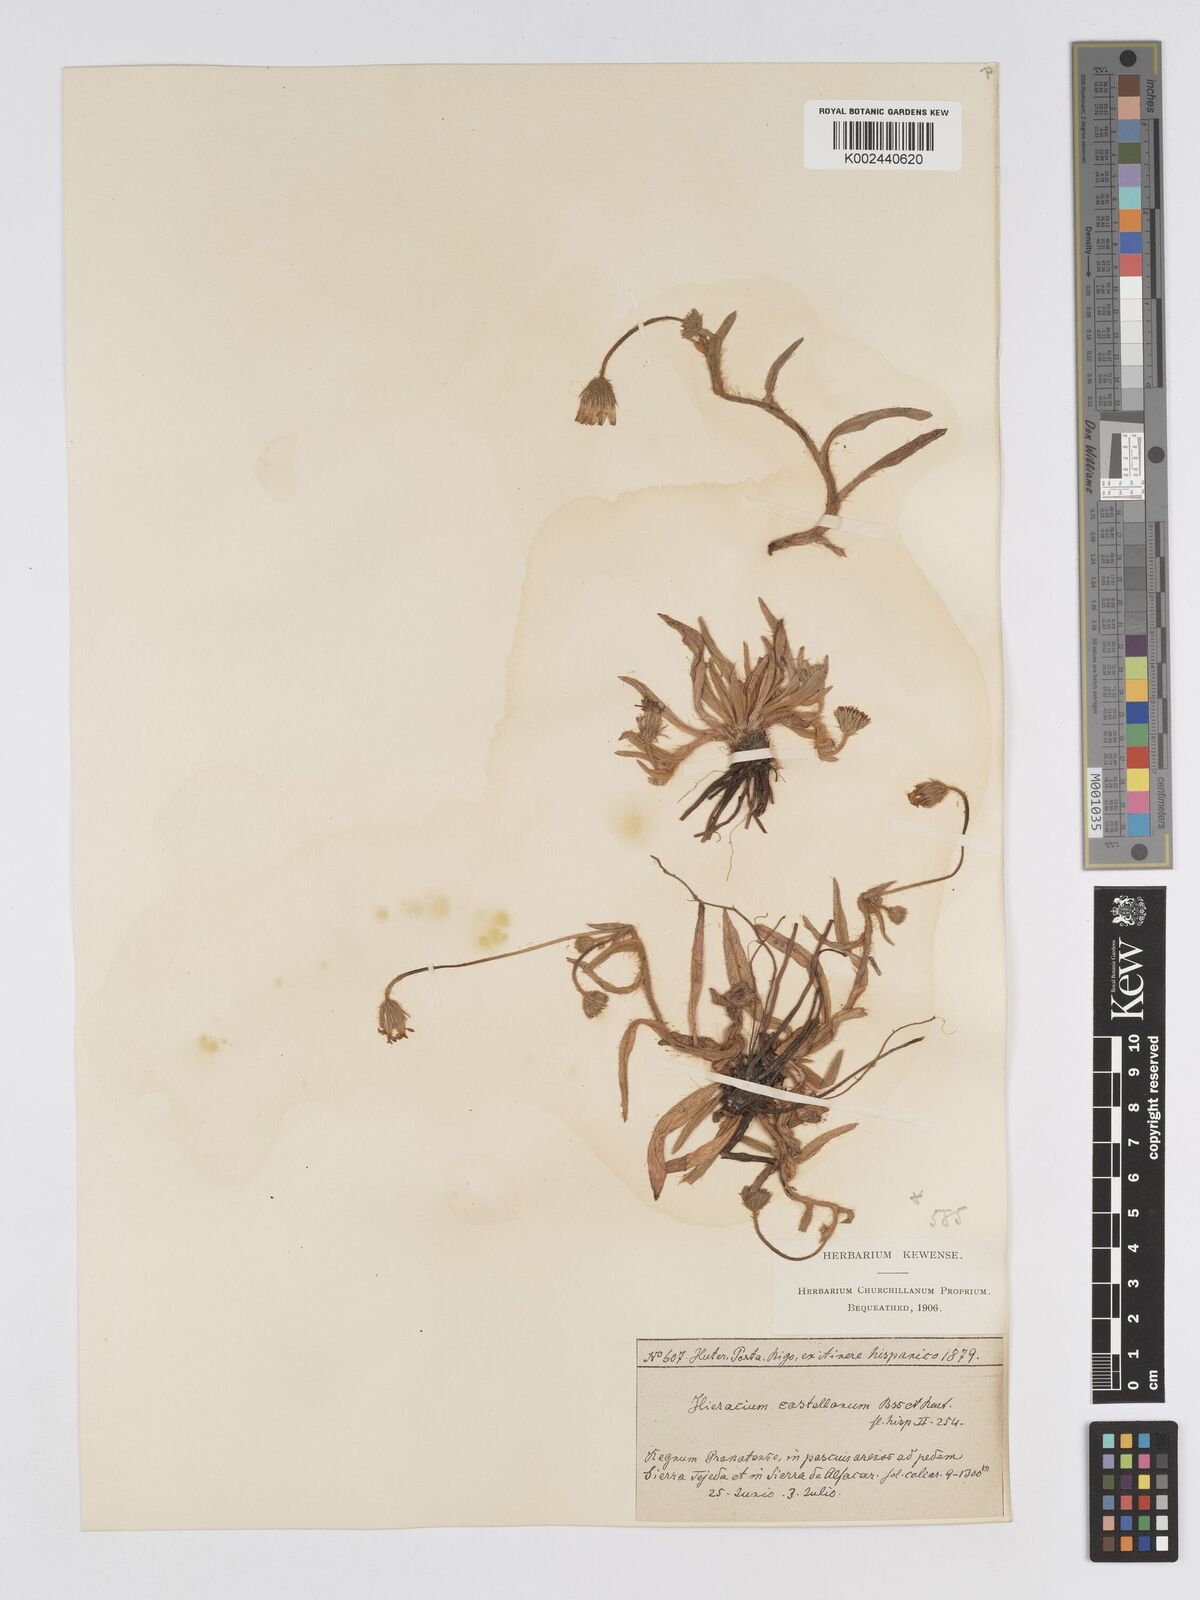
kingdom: Plantae
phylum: Tracheophyta
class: Magnoliopsida
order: Asterales
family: Asteraceae
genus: Pilosella
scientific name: Pilosella castellana
